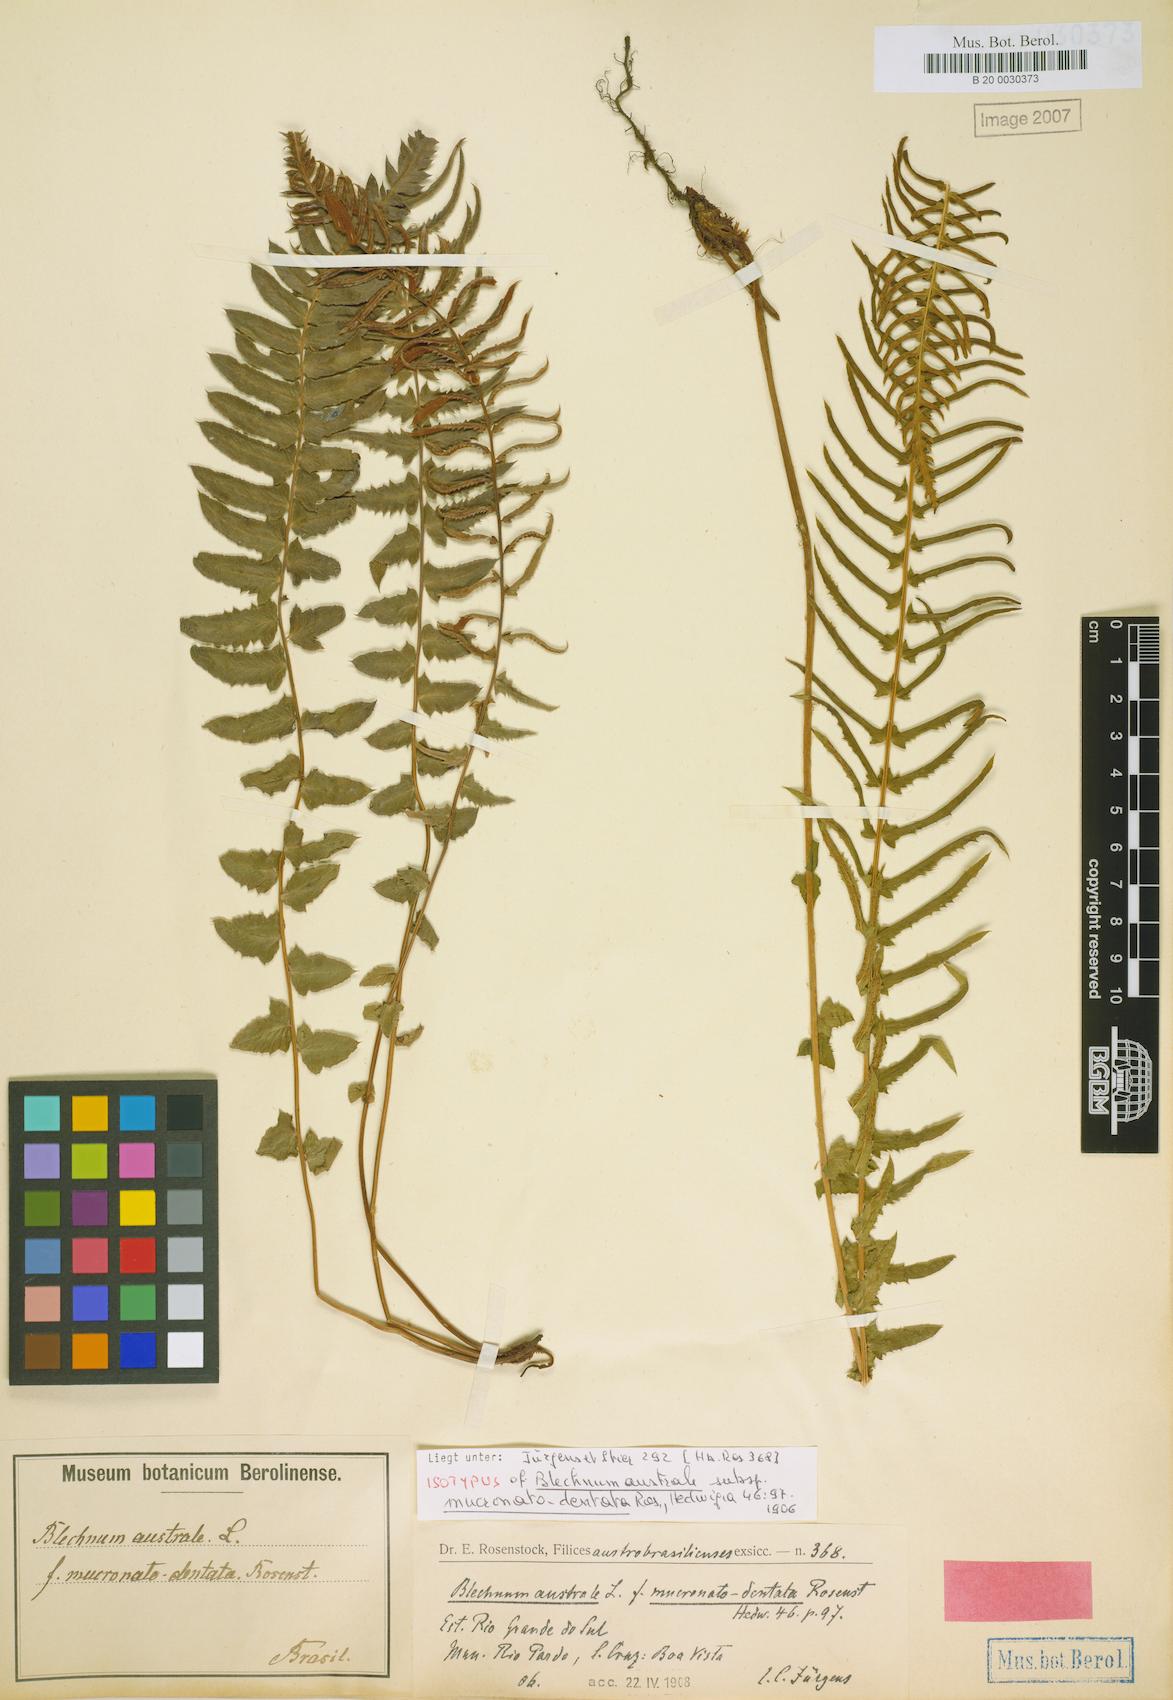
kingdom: Plantae
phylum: Tracheophyta
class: Polypodiopsida
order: Polypodiales
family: Blechnaceae
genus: Blechnum
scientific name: Blechnum auriculatum
